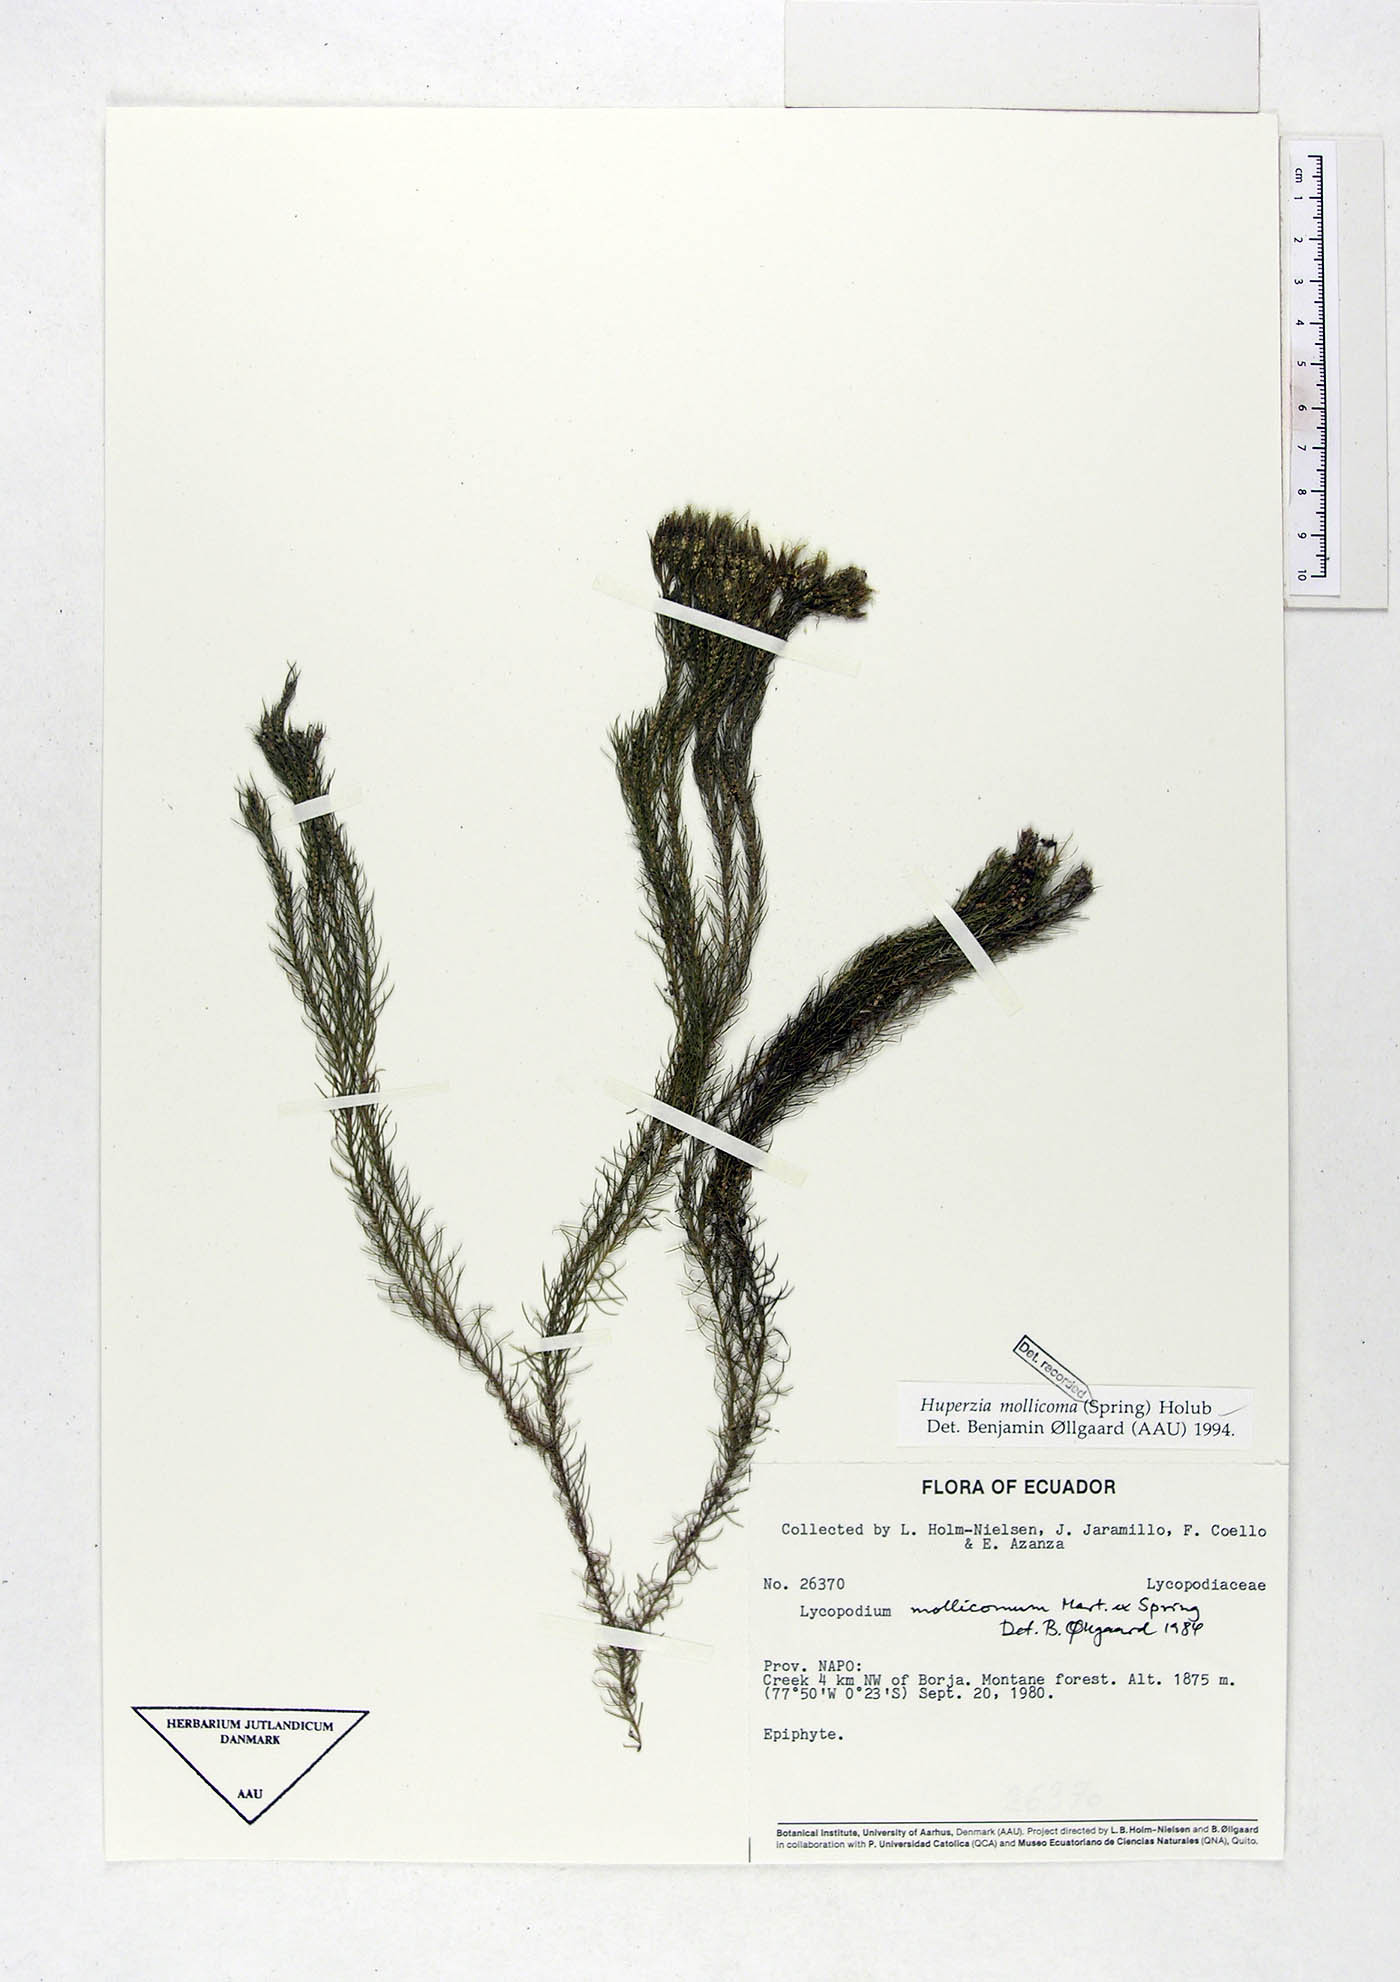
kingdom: Plantae
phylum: Tracheophyta
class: Lycopodiopsida
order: Lycopodiales
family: Lycopodiaceae
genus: Phlegmariurus
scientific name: Phlegmariurus mollicomus
